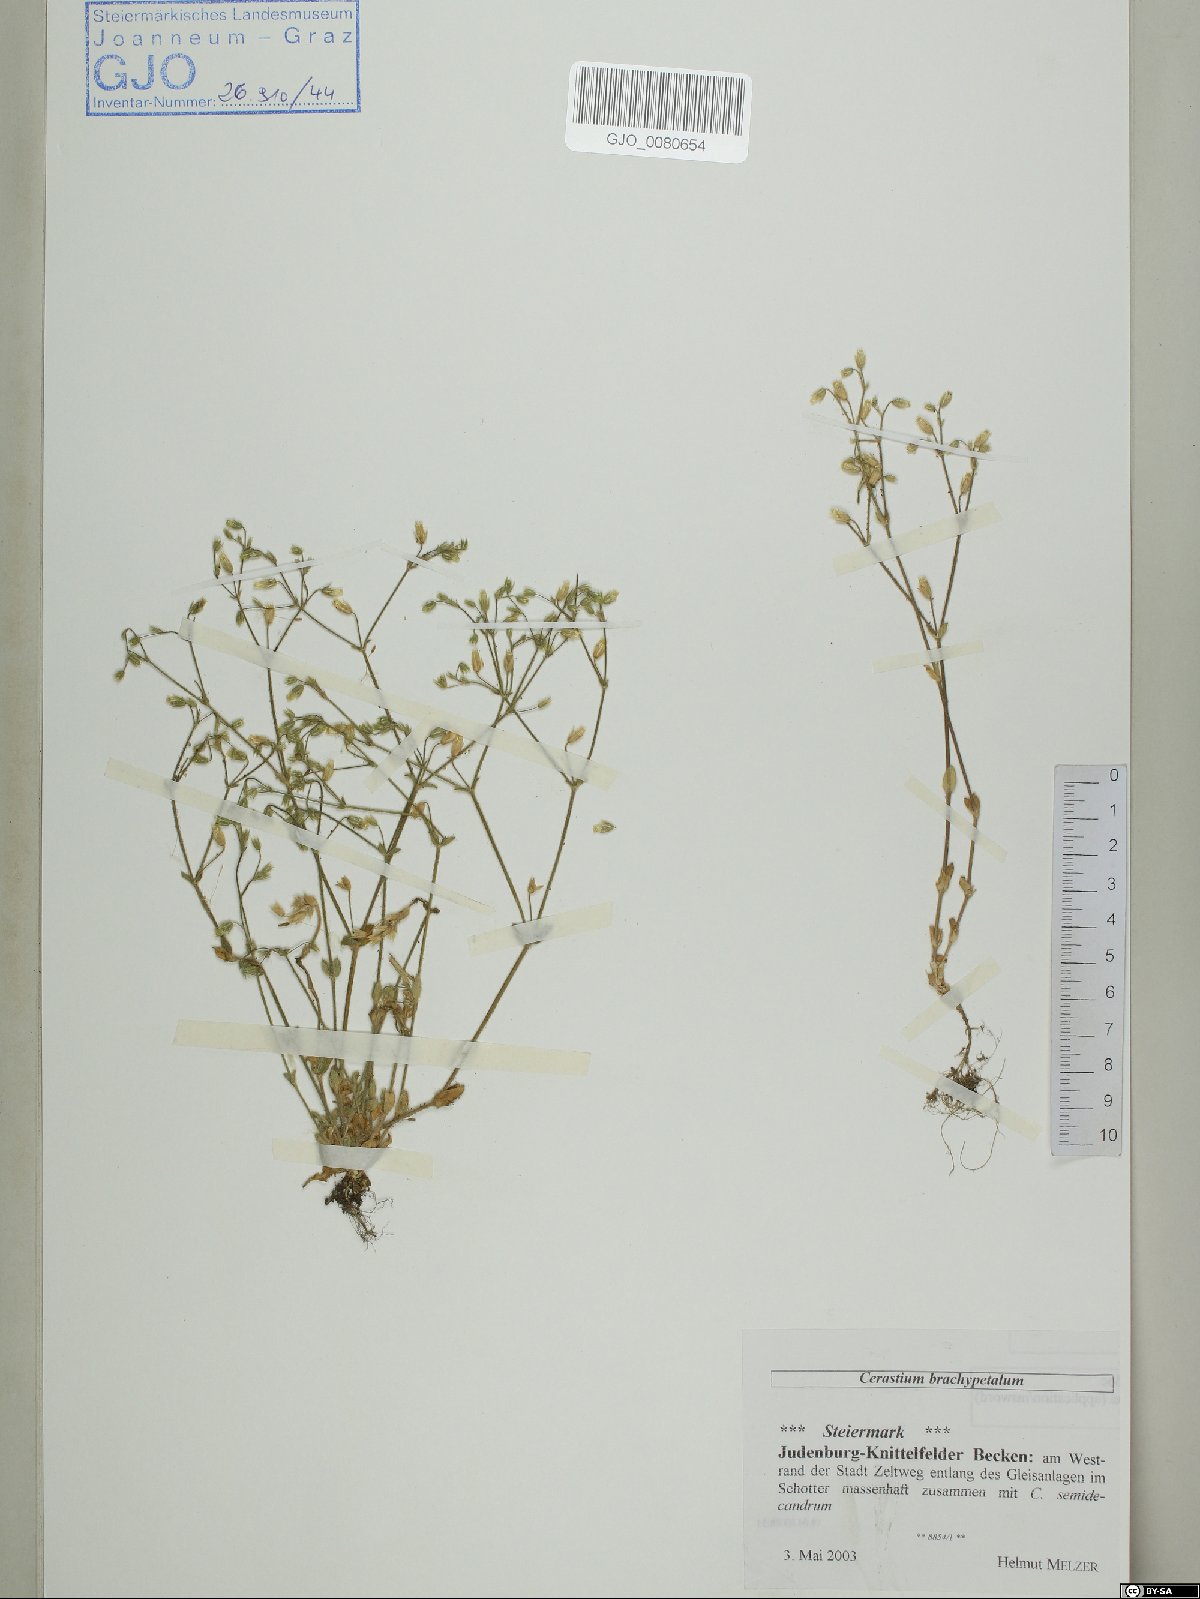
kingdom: Plantae
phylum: Tracheophyta
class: Magnoliopsida
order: Caryophyllales
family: Caryophyllaceae
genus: Cerastium
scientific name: Cerastium brachypetalum
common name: Grey mouse-ear
